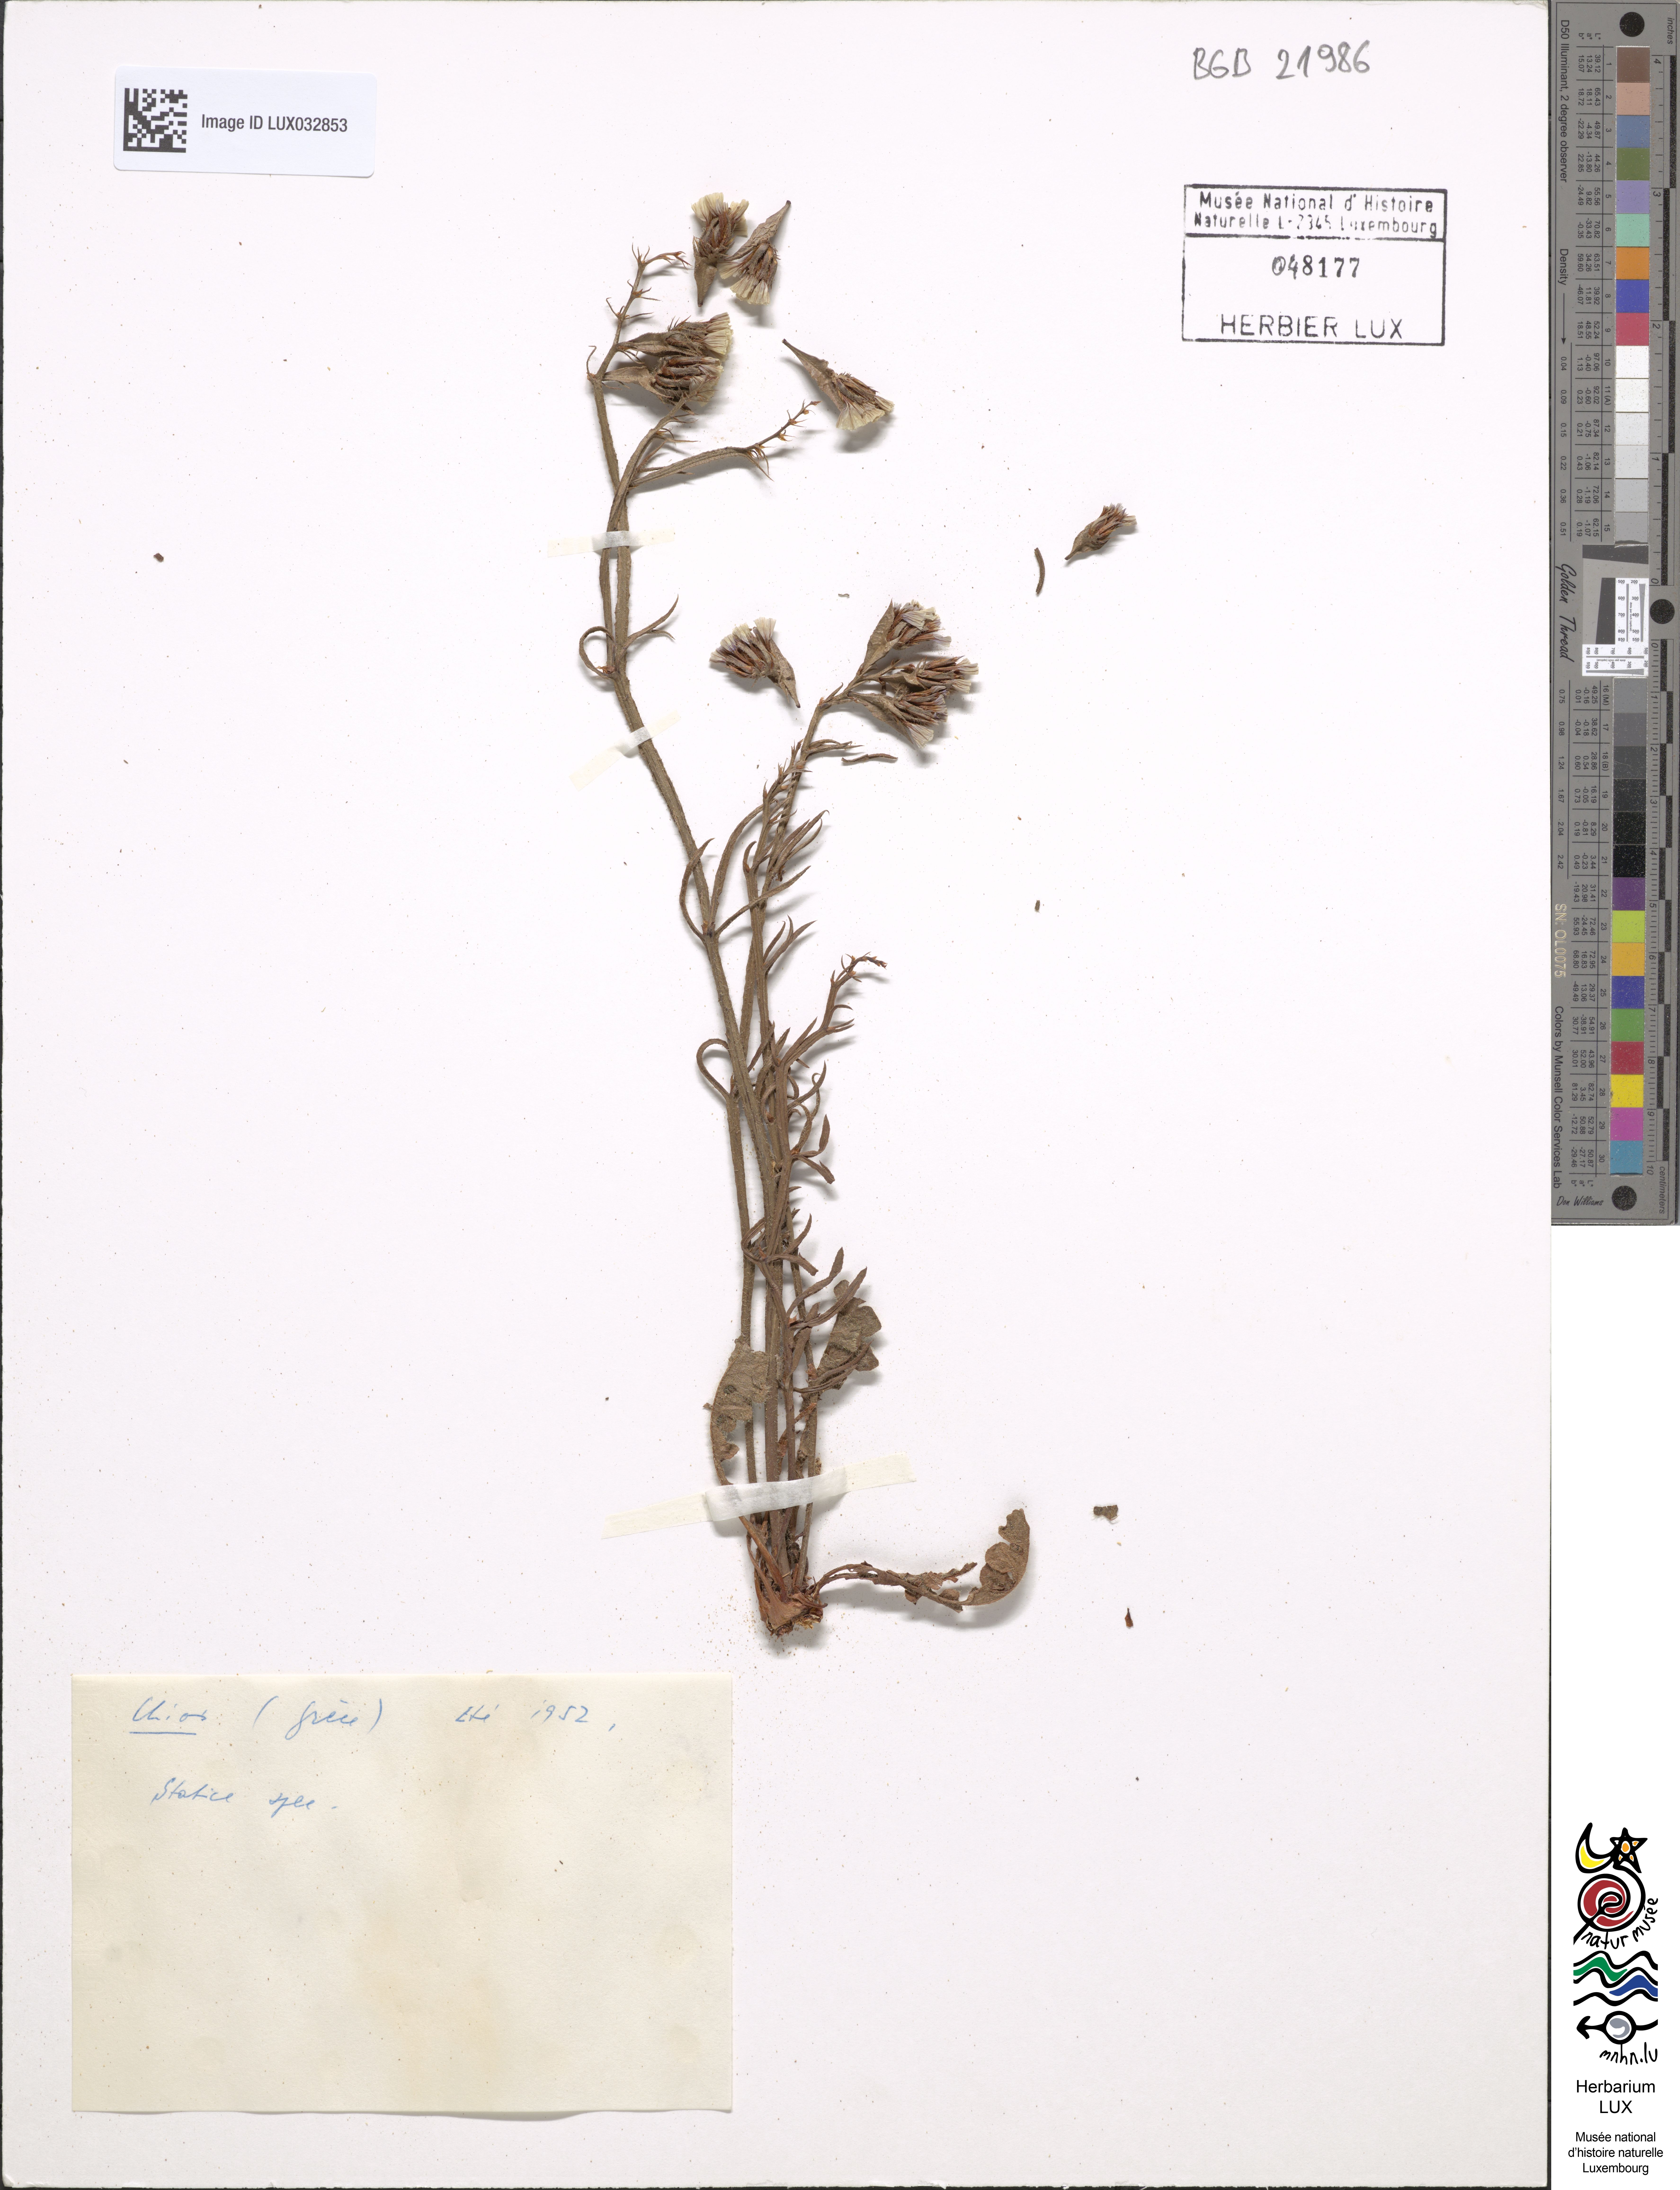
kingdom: Plantae
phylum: Tracheophyta
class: Magnoliopsida
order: Caryophyllales
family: Plumbaginaceae
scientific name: Plumbaginaceae
